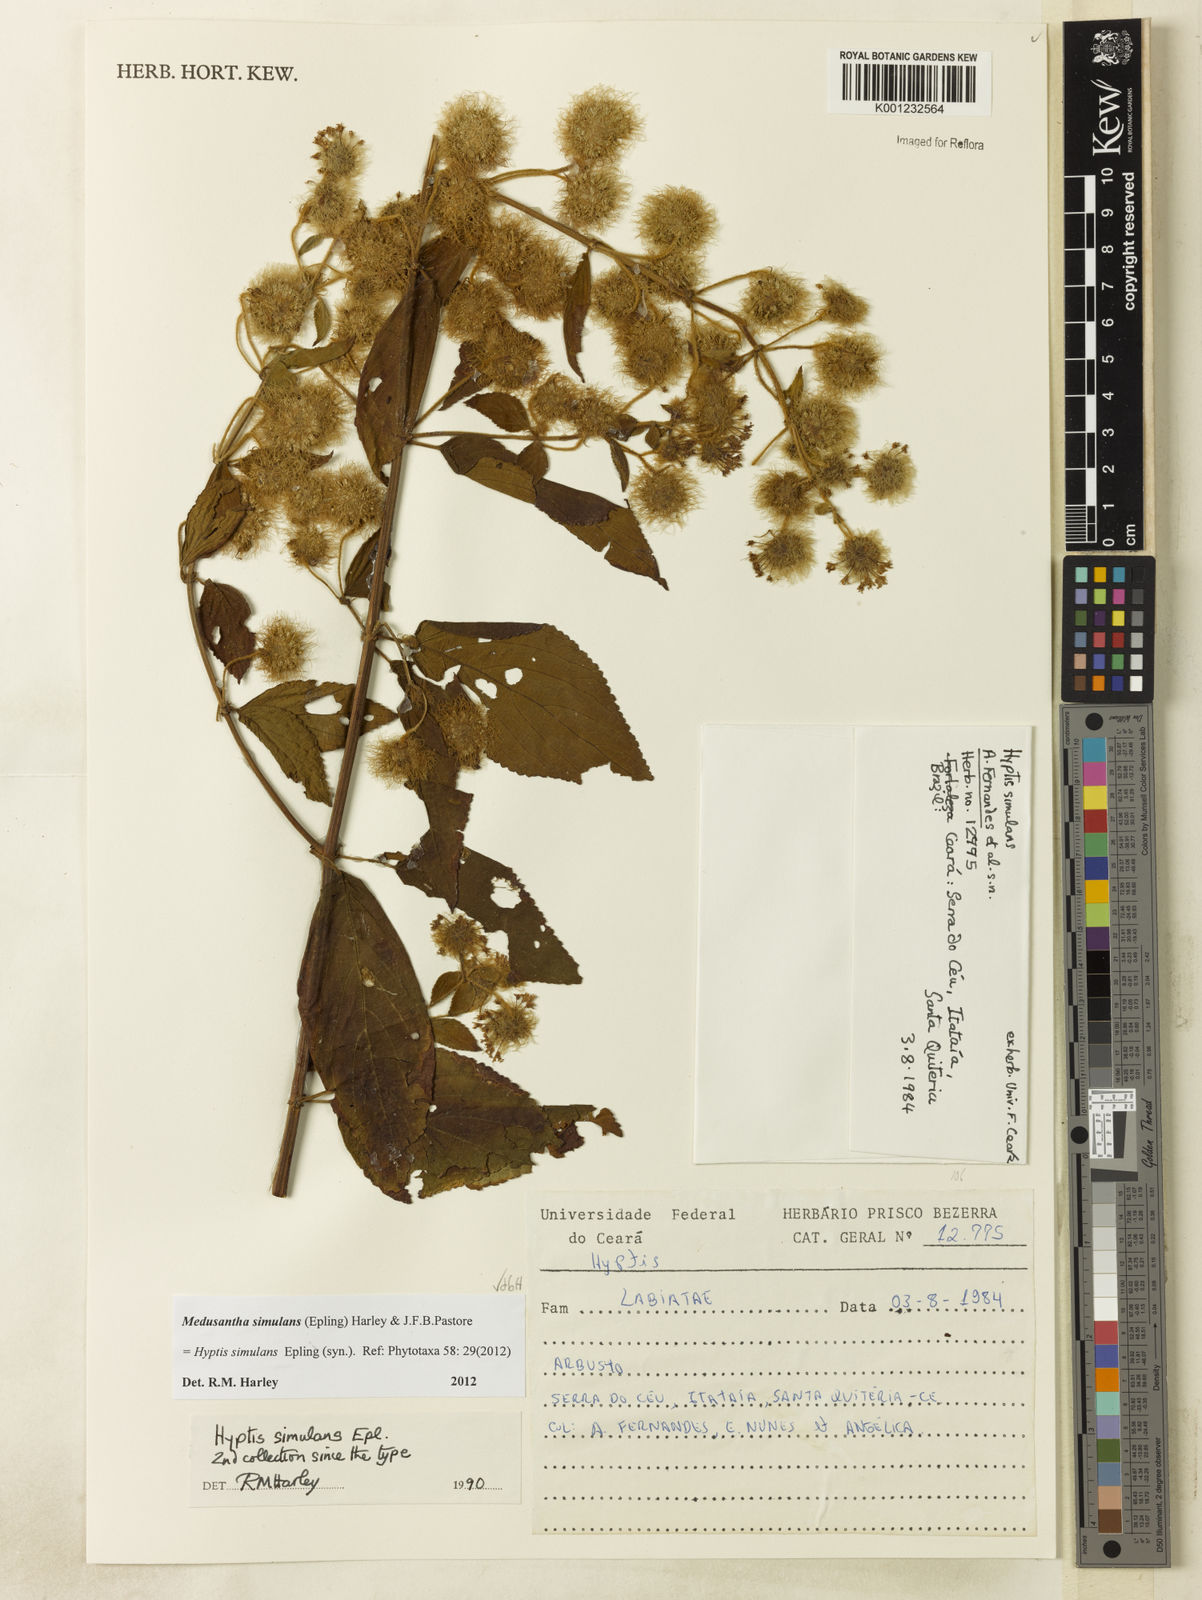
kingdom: Plantae
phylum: Tracheophyta
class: Magnoliopsida
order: Lamiales
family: Lamiaceae
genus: Medusantha
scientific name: Medusantha simulans
